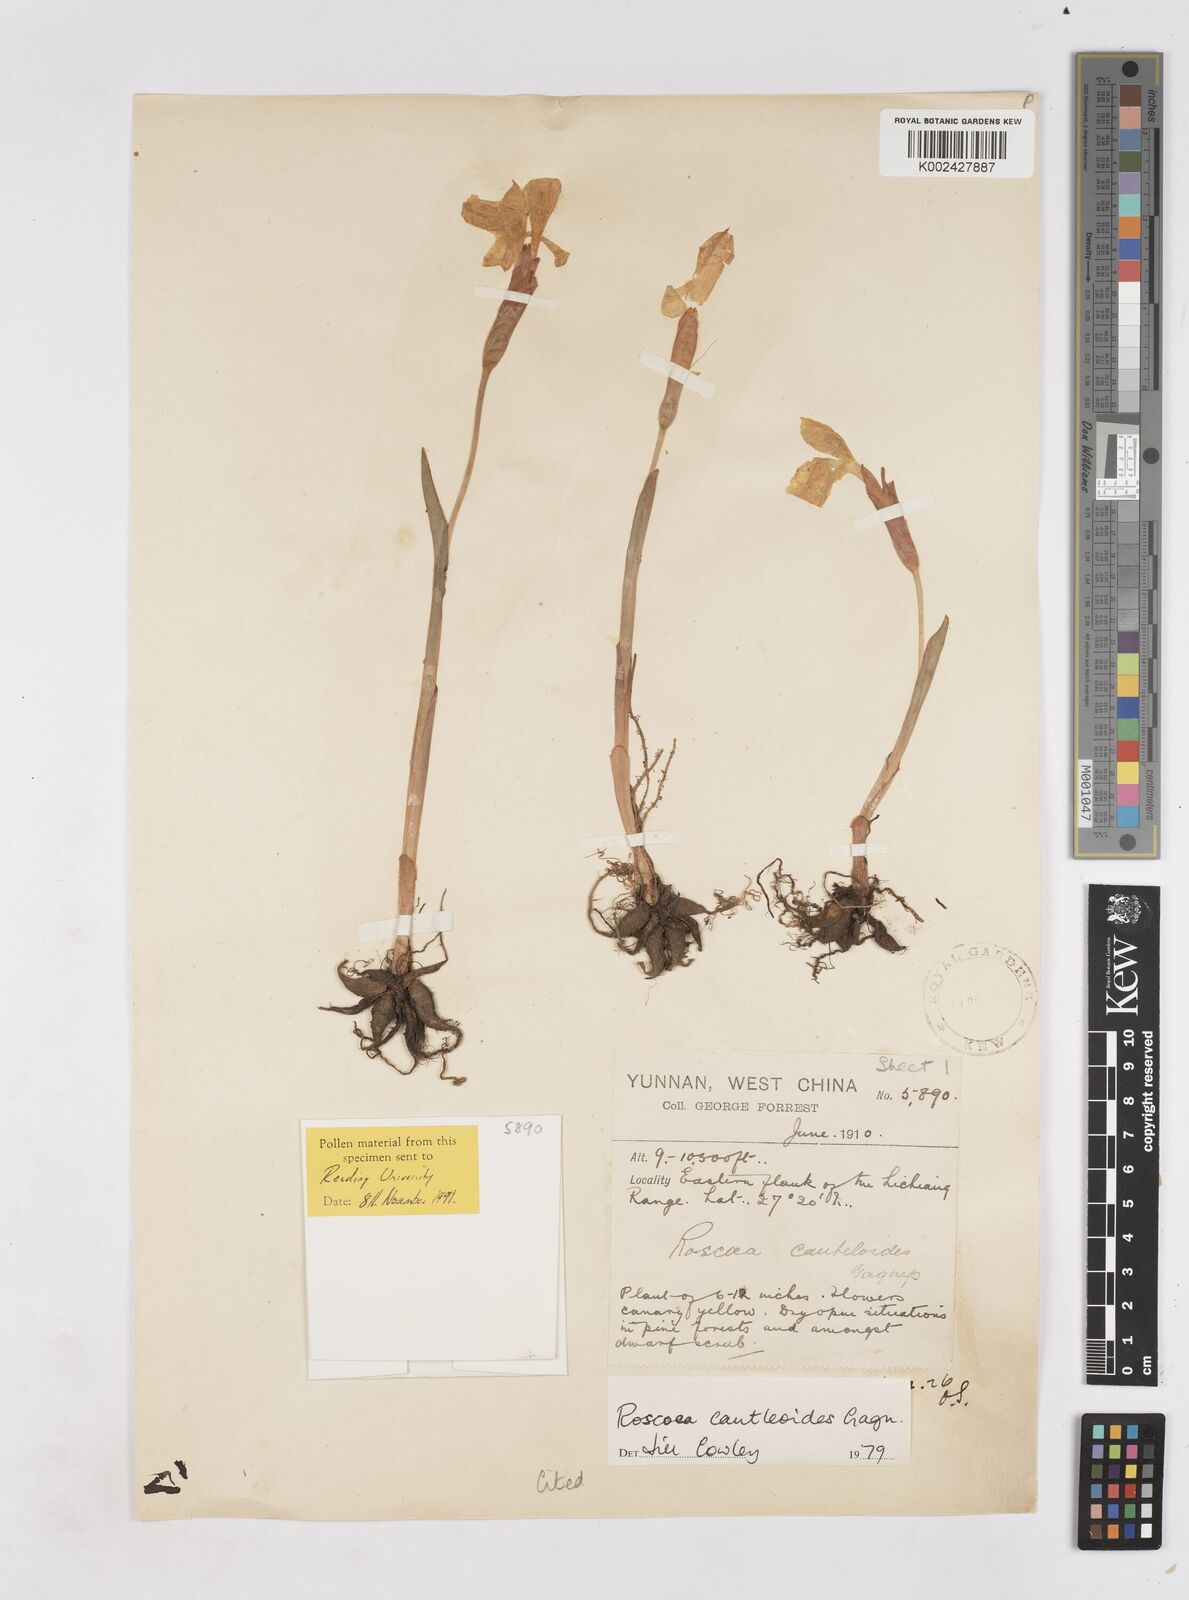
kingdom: Plantae
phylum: Tracheophyta
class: Liliopsida
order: Zingiberales
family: Zingiberaceae
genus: Roscoea
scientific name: Roscoea cautleyoides
